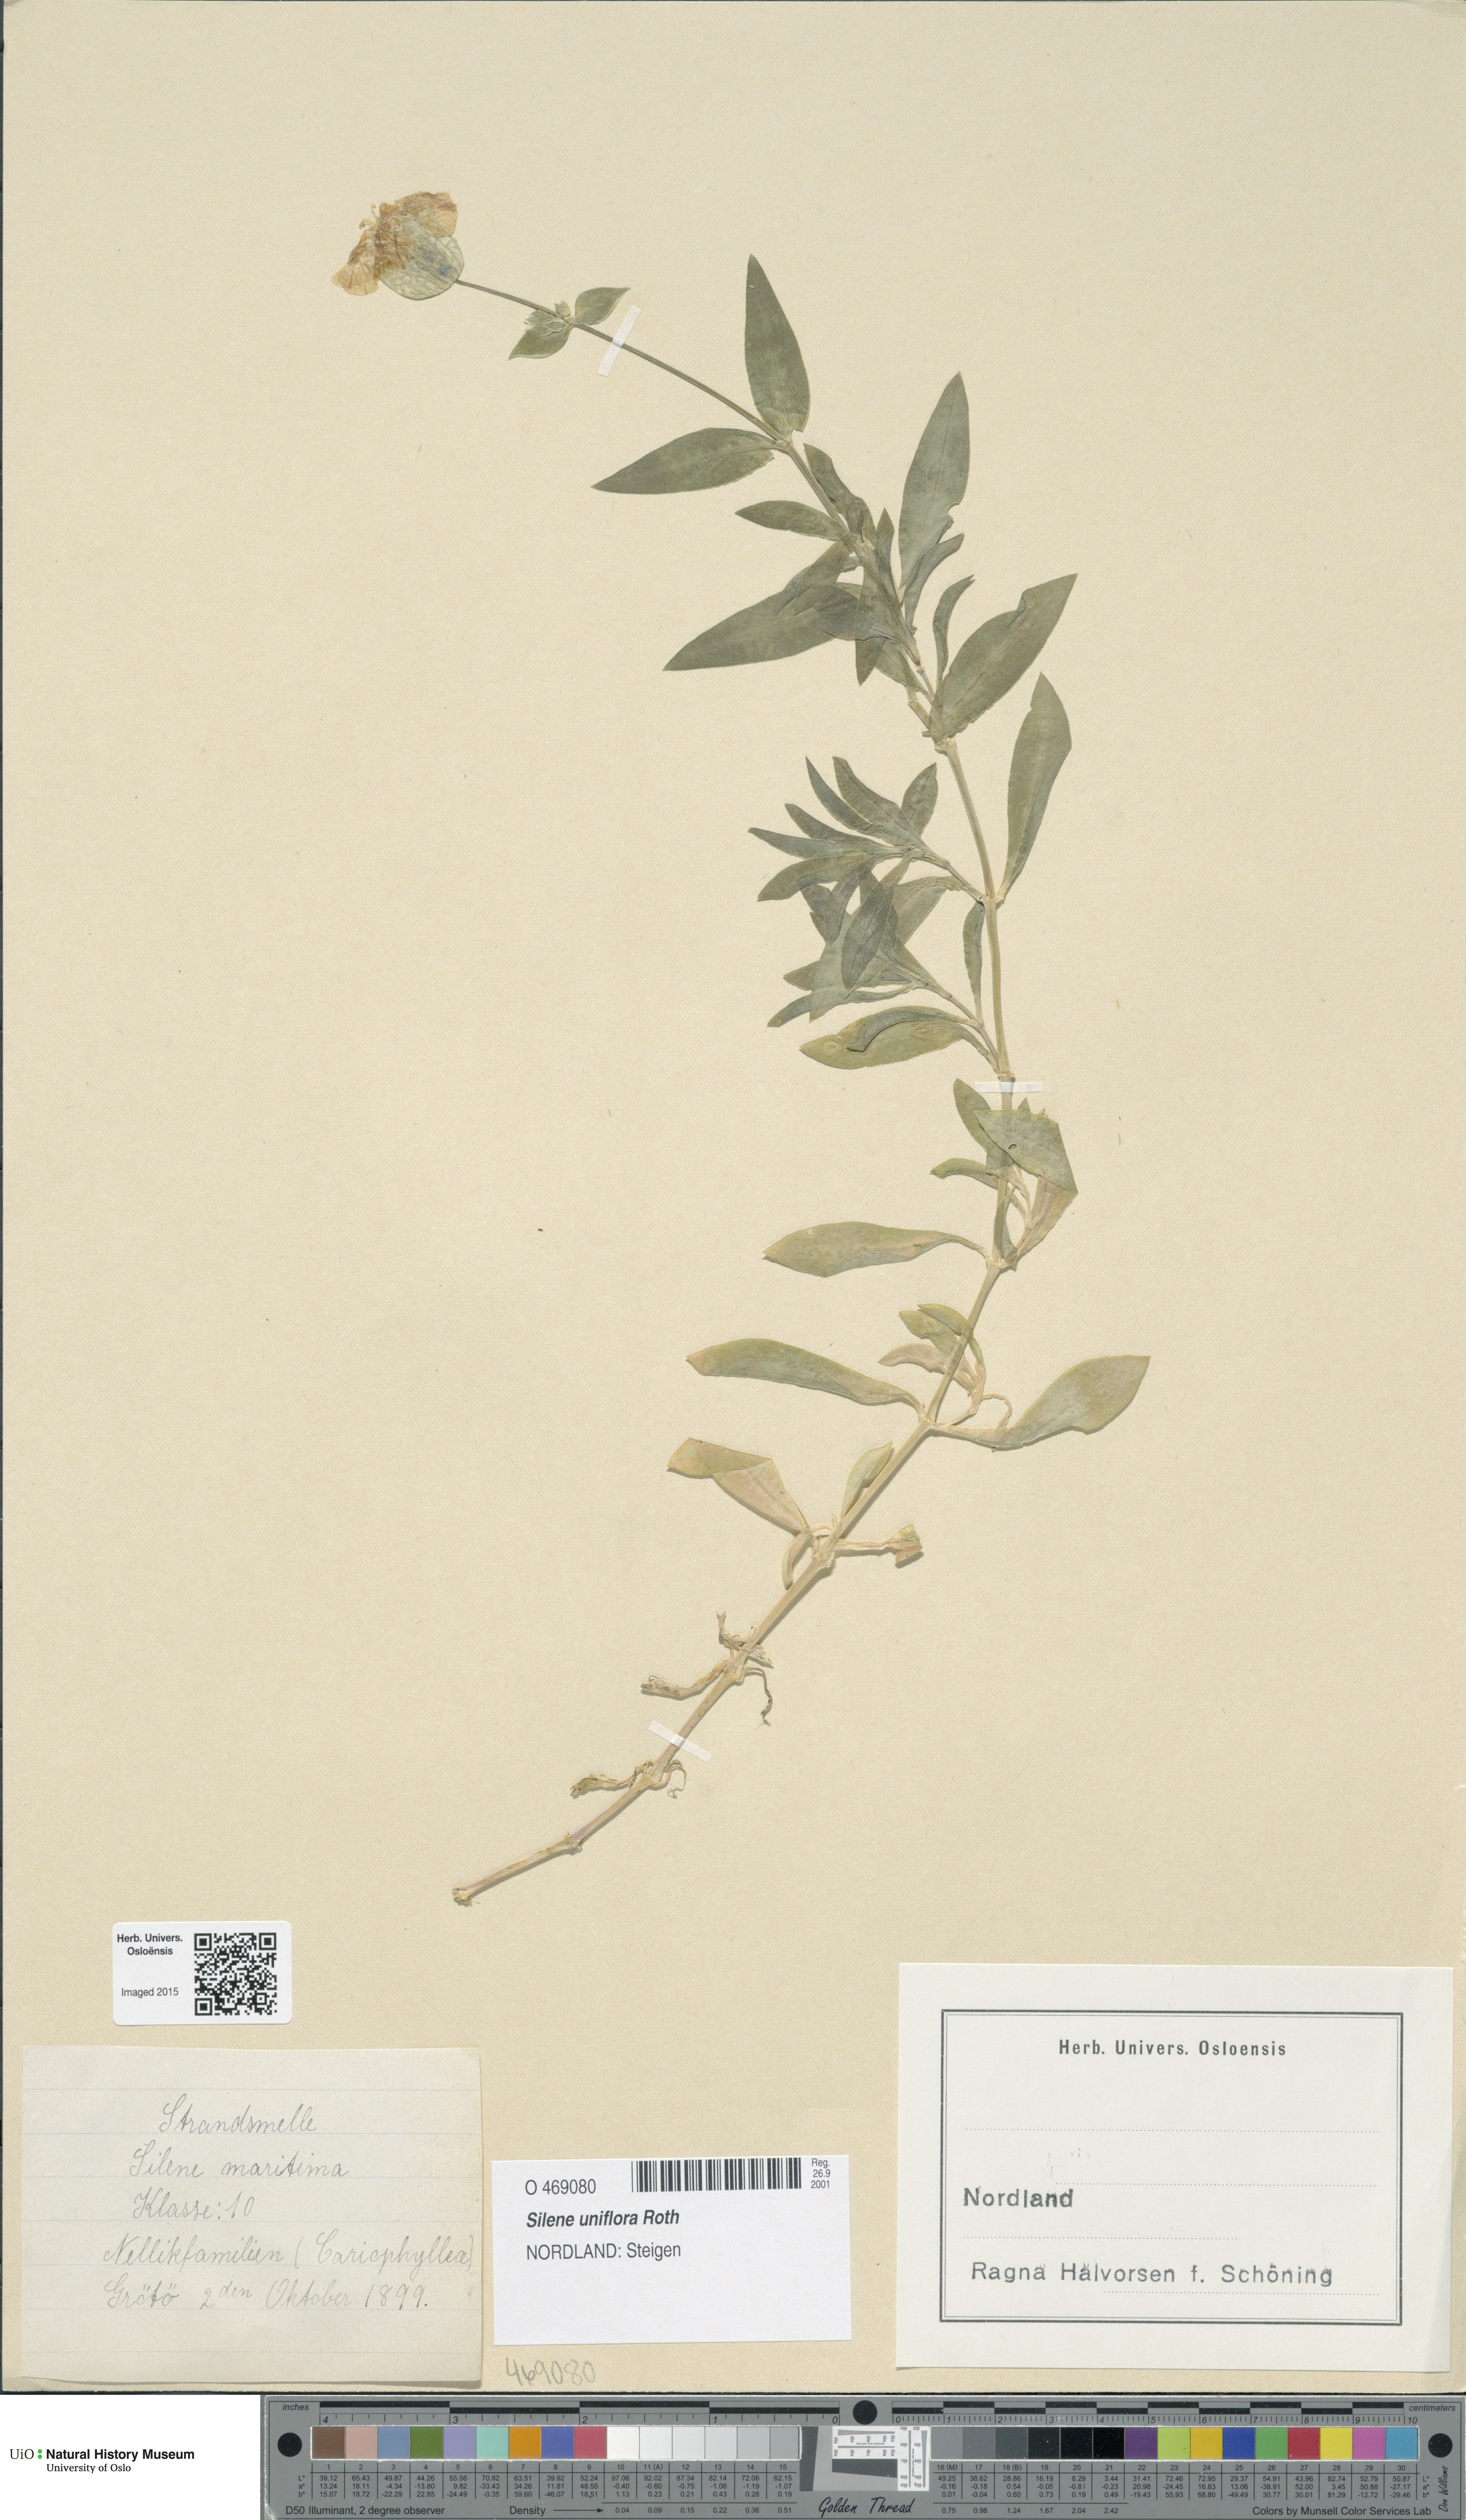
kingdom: Plantae
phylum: Tracheophyta
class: Magnoliopsida
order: Caryophyllales
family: Caryophyllaceae
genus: Silene
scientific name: Silene uniflora
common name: Sea campion
